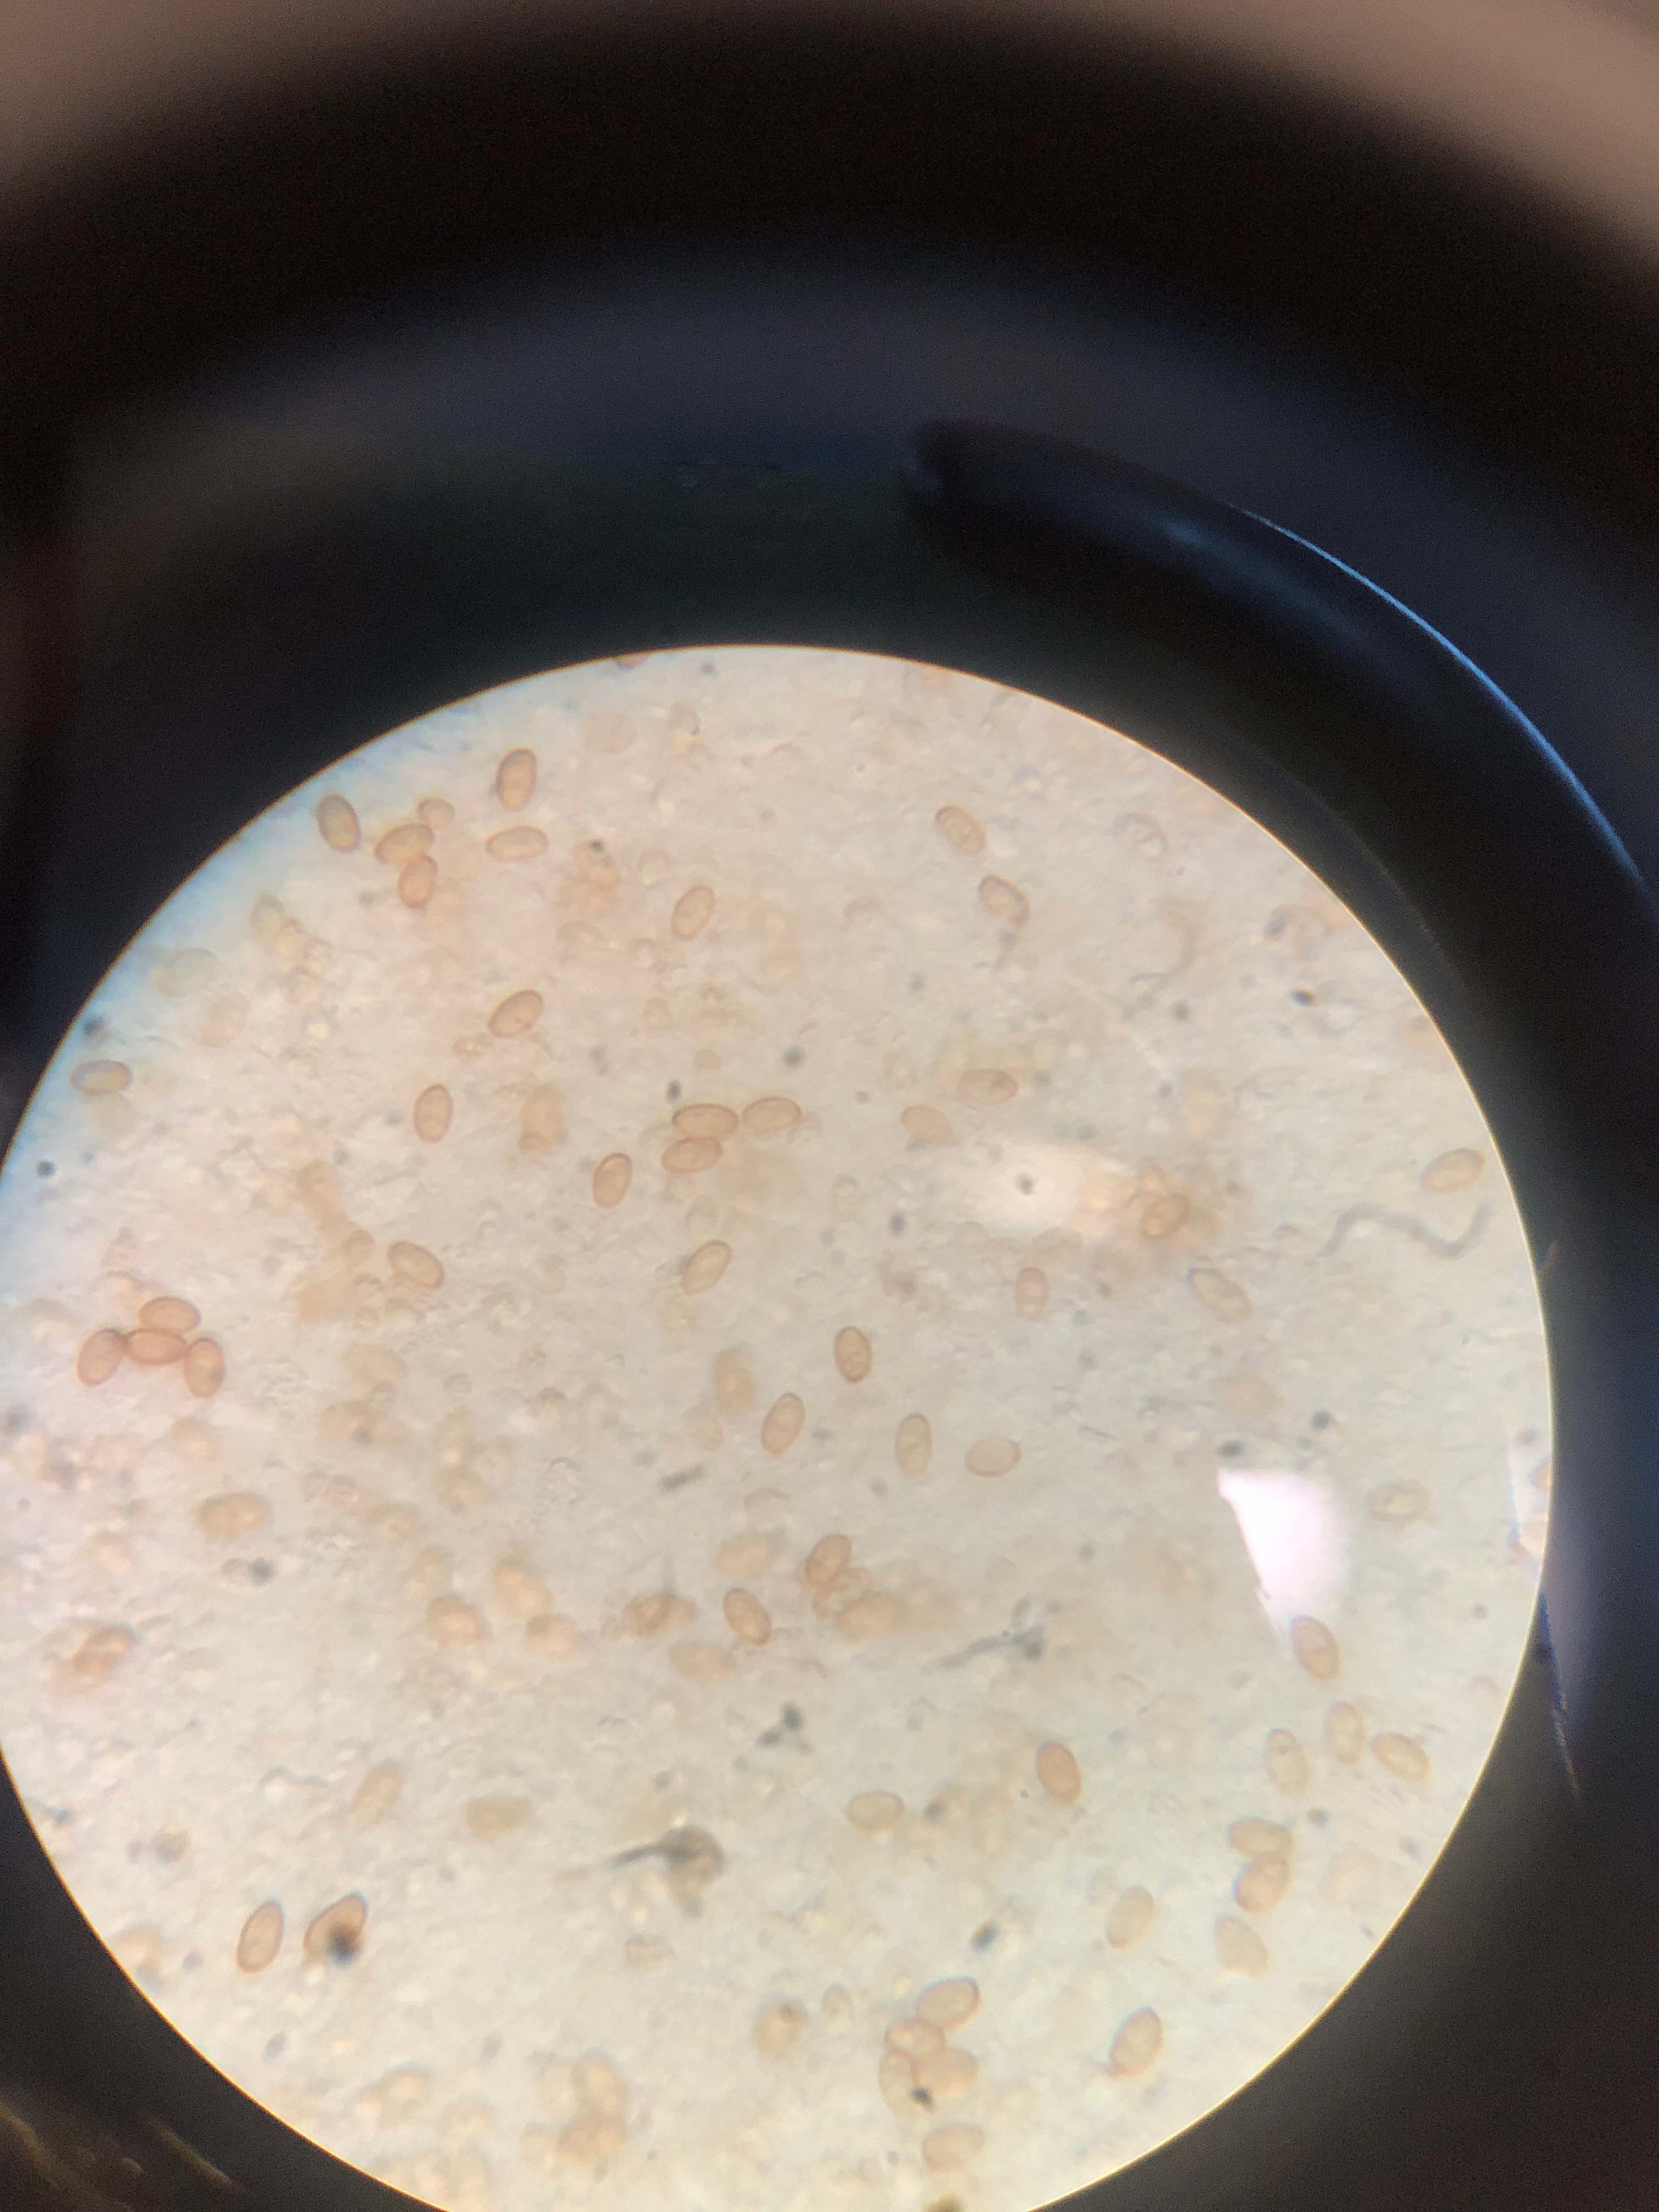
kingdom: Fungi
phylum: Basidiomycota
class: Agaricomycetes
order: Agaricales
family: Strophariaceae
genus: Hypholoma
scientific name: Hypholoma
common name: svovlhat
